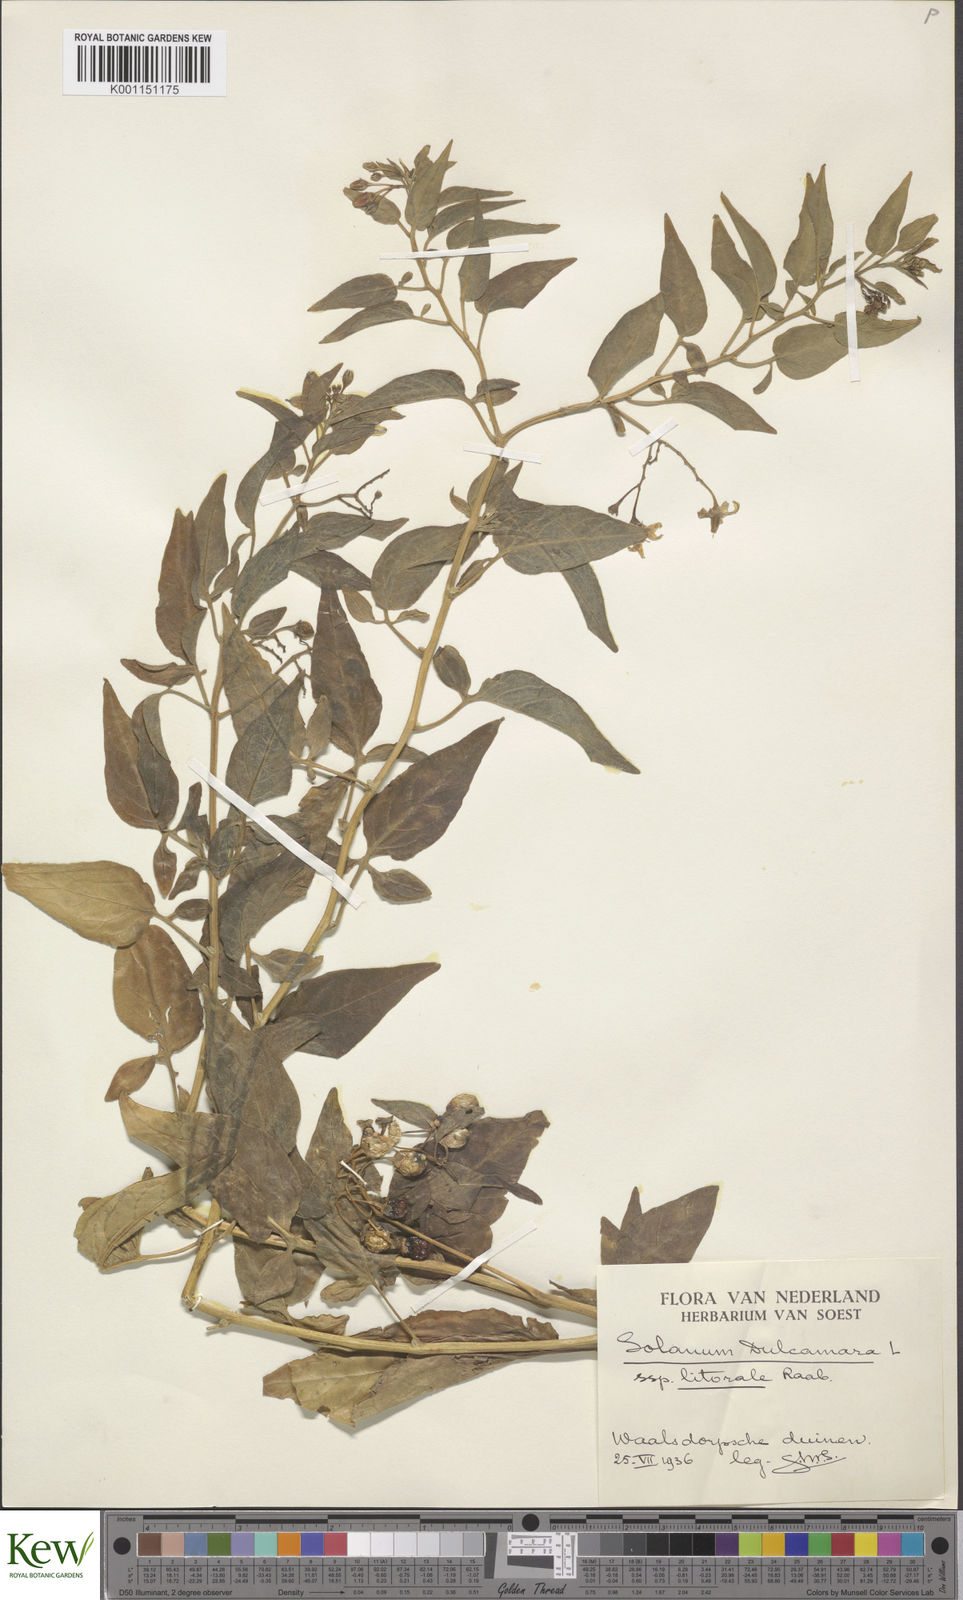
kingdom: Plantae
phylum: Tracheophyta
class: Magnoliopsida
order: Solanales
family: Solanaceae
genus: Solanum
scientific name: Solanum dulcamara
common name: Climbing nightshade
